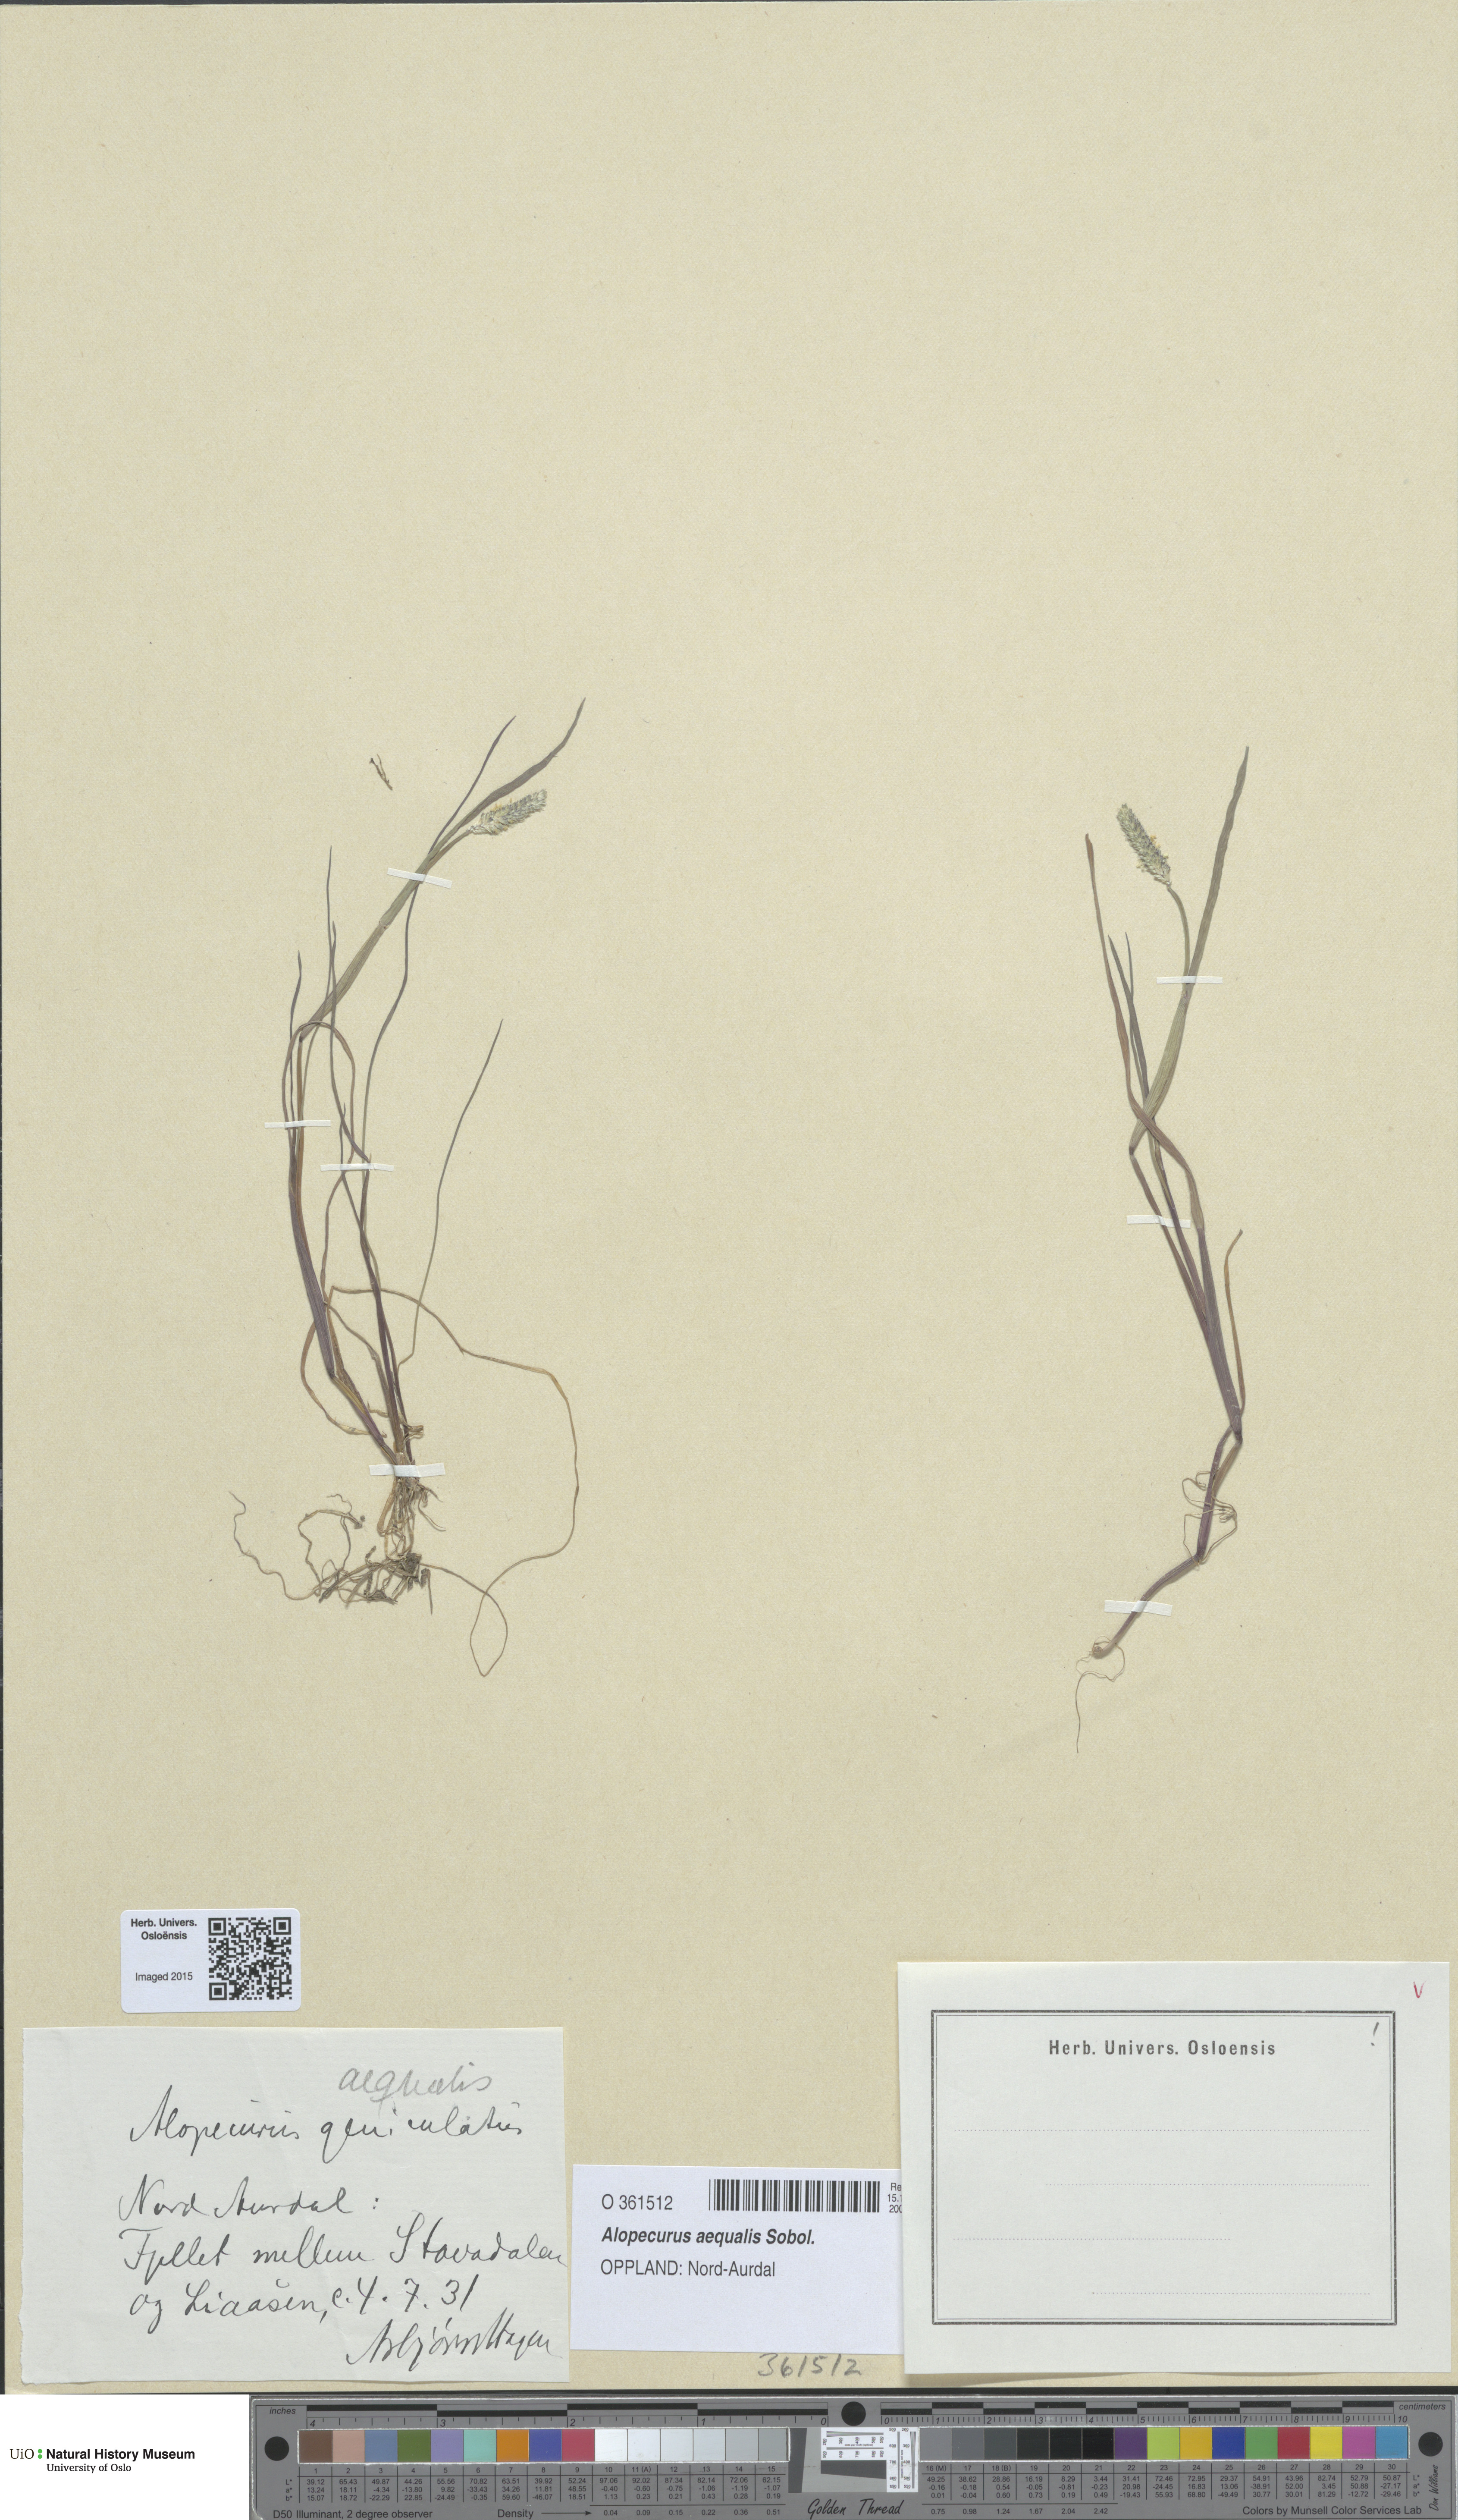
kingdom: Plantae
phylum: Tracheophyta
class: Liliopsida
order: Poales
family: Poaceae
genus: Alopecurus
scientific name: Alopecurus aequalis
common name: Orange foxtail
